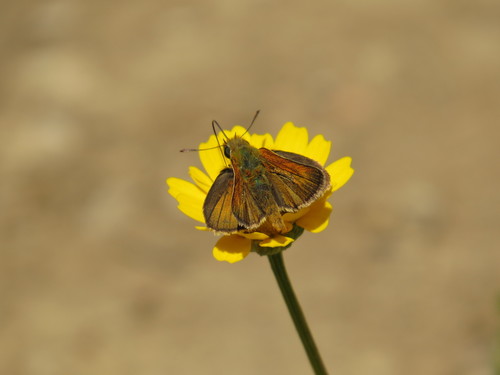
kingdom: Animalia
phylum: Arthropoda
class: Insecta
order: Lepidoptera
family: Hesperiidae
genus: Thymelicus
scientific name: Thymelicus acteon
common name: Lulworth skipper
